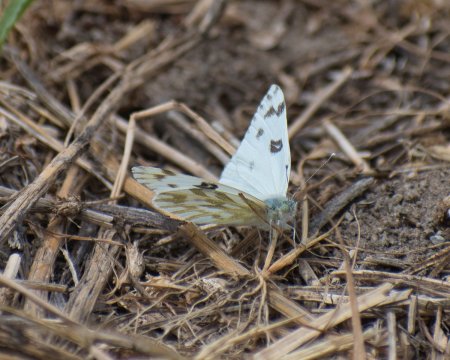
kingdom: Animalia
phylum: Arthropoda
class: Insecta
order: Lepidoptera
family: Pieridae
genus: Pontia
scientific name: Pontia beckerii
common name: Becker's White
